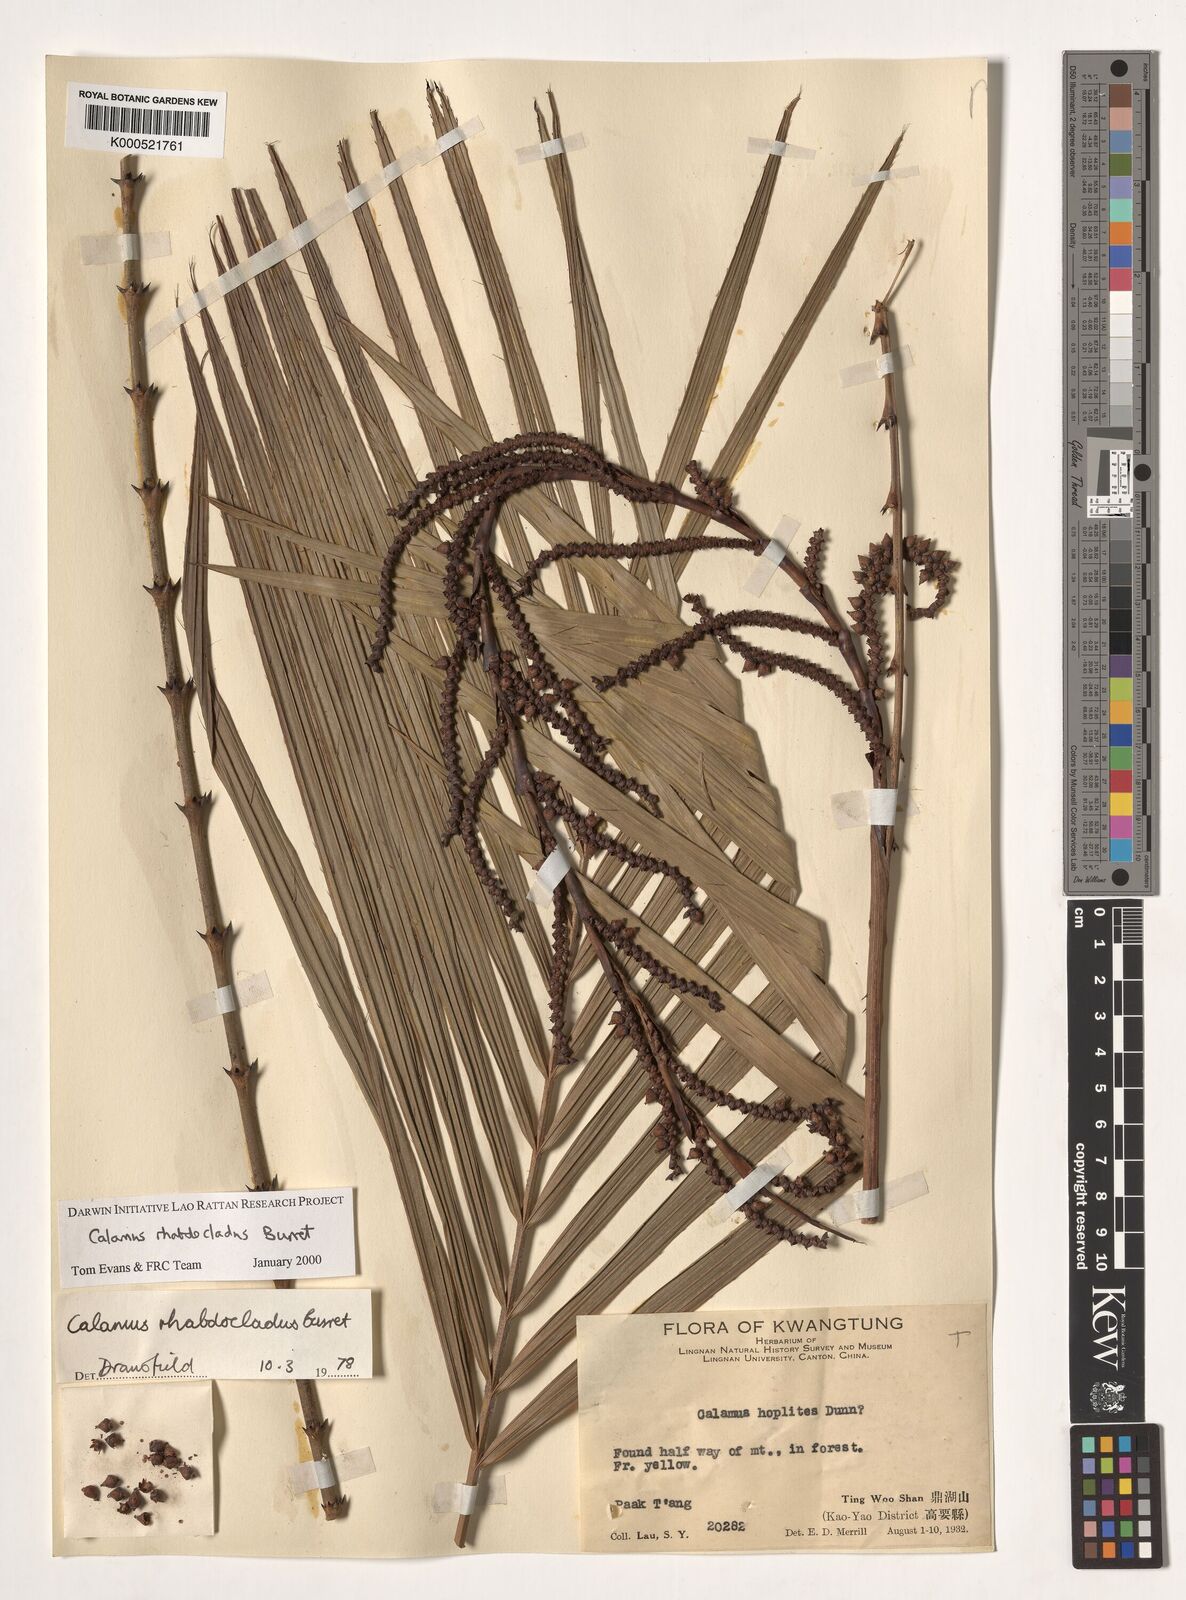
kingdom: Plantae
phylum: Tracheophyta
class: Liliopsida
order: Arecales
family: Arecaceae
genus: Calamus
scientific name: Calamus rhabdocladus
